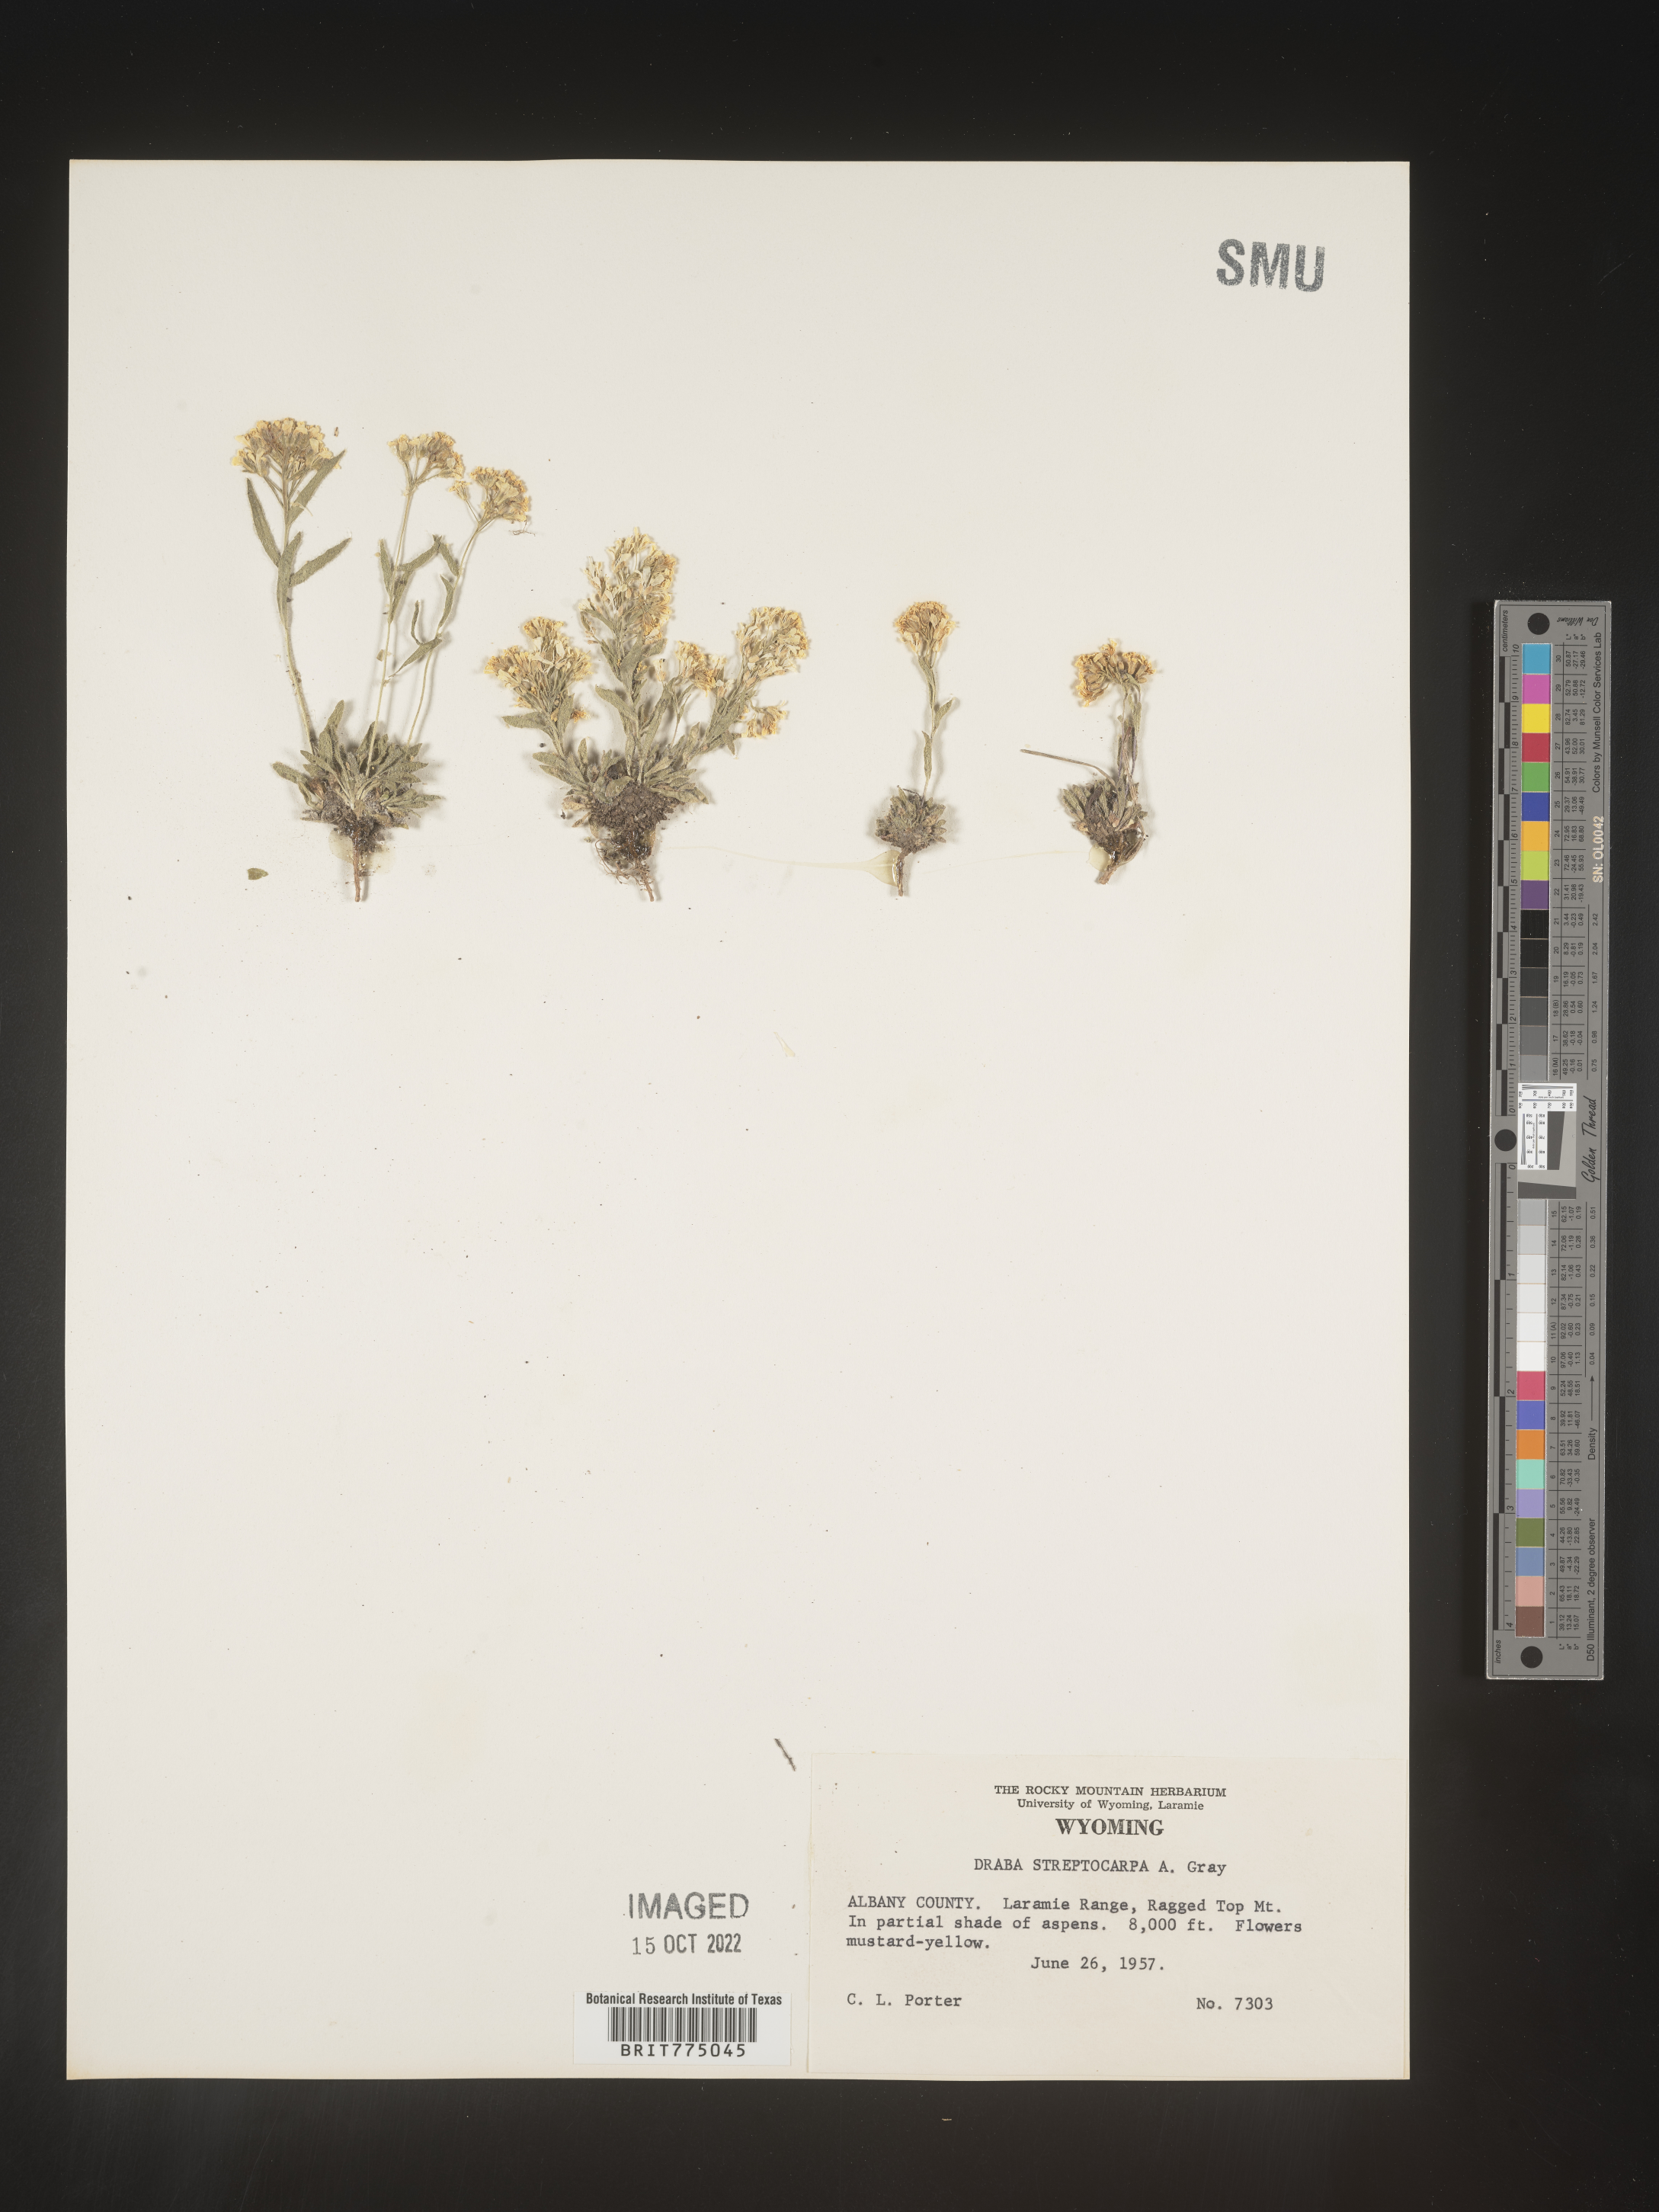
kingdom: Plantae
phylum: Tracheophyta
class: Magnoliopsida
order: Brassicales
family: Brassicaceae
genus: Draba
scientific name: Draba
